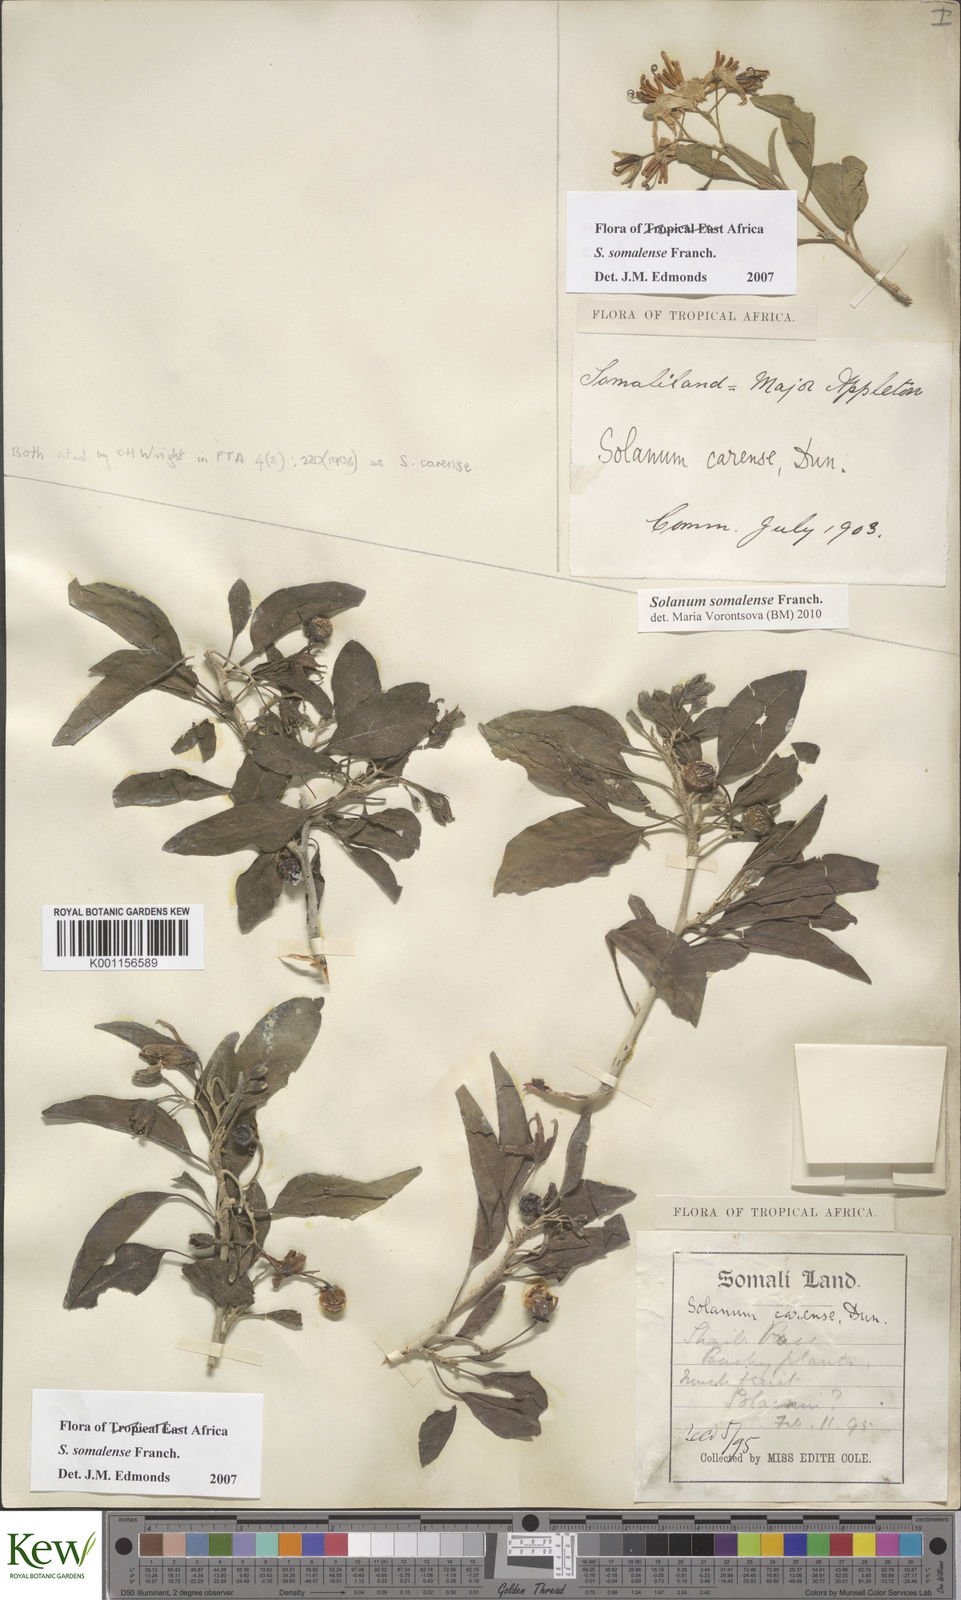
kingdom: Plantae
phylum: Tracheophyta
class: Magnoliopsida
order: Solanales
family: Solanaceae
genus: Solanum
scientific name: Solanum somalense
